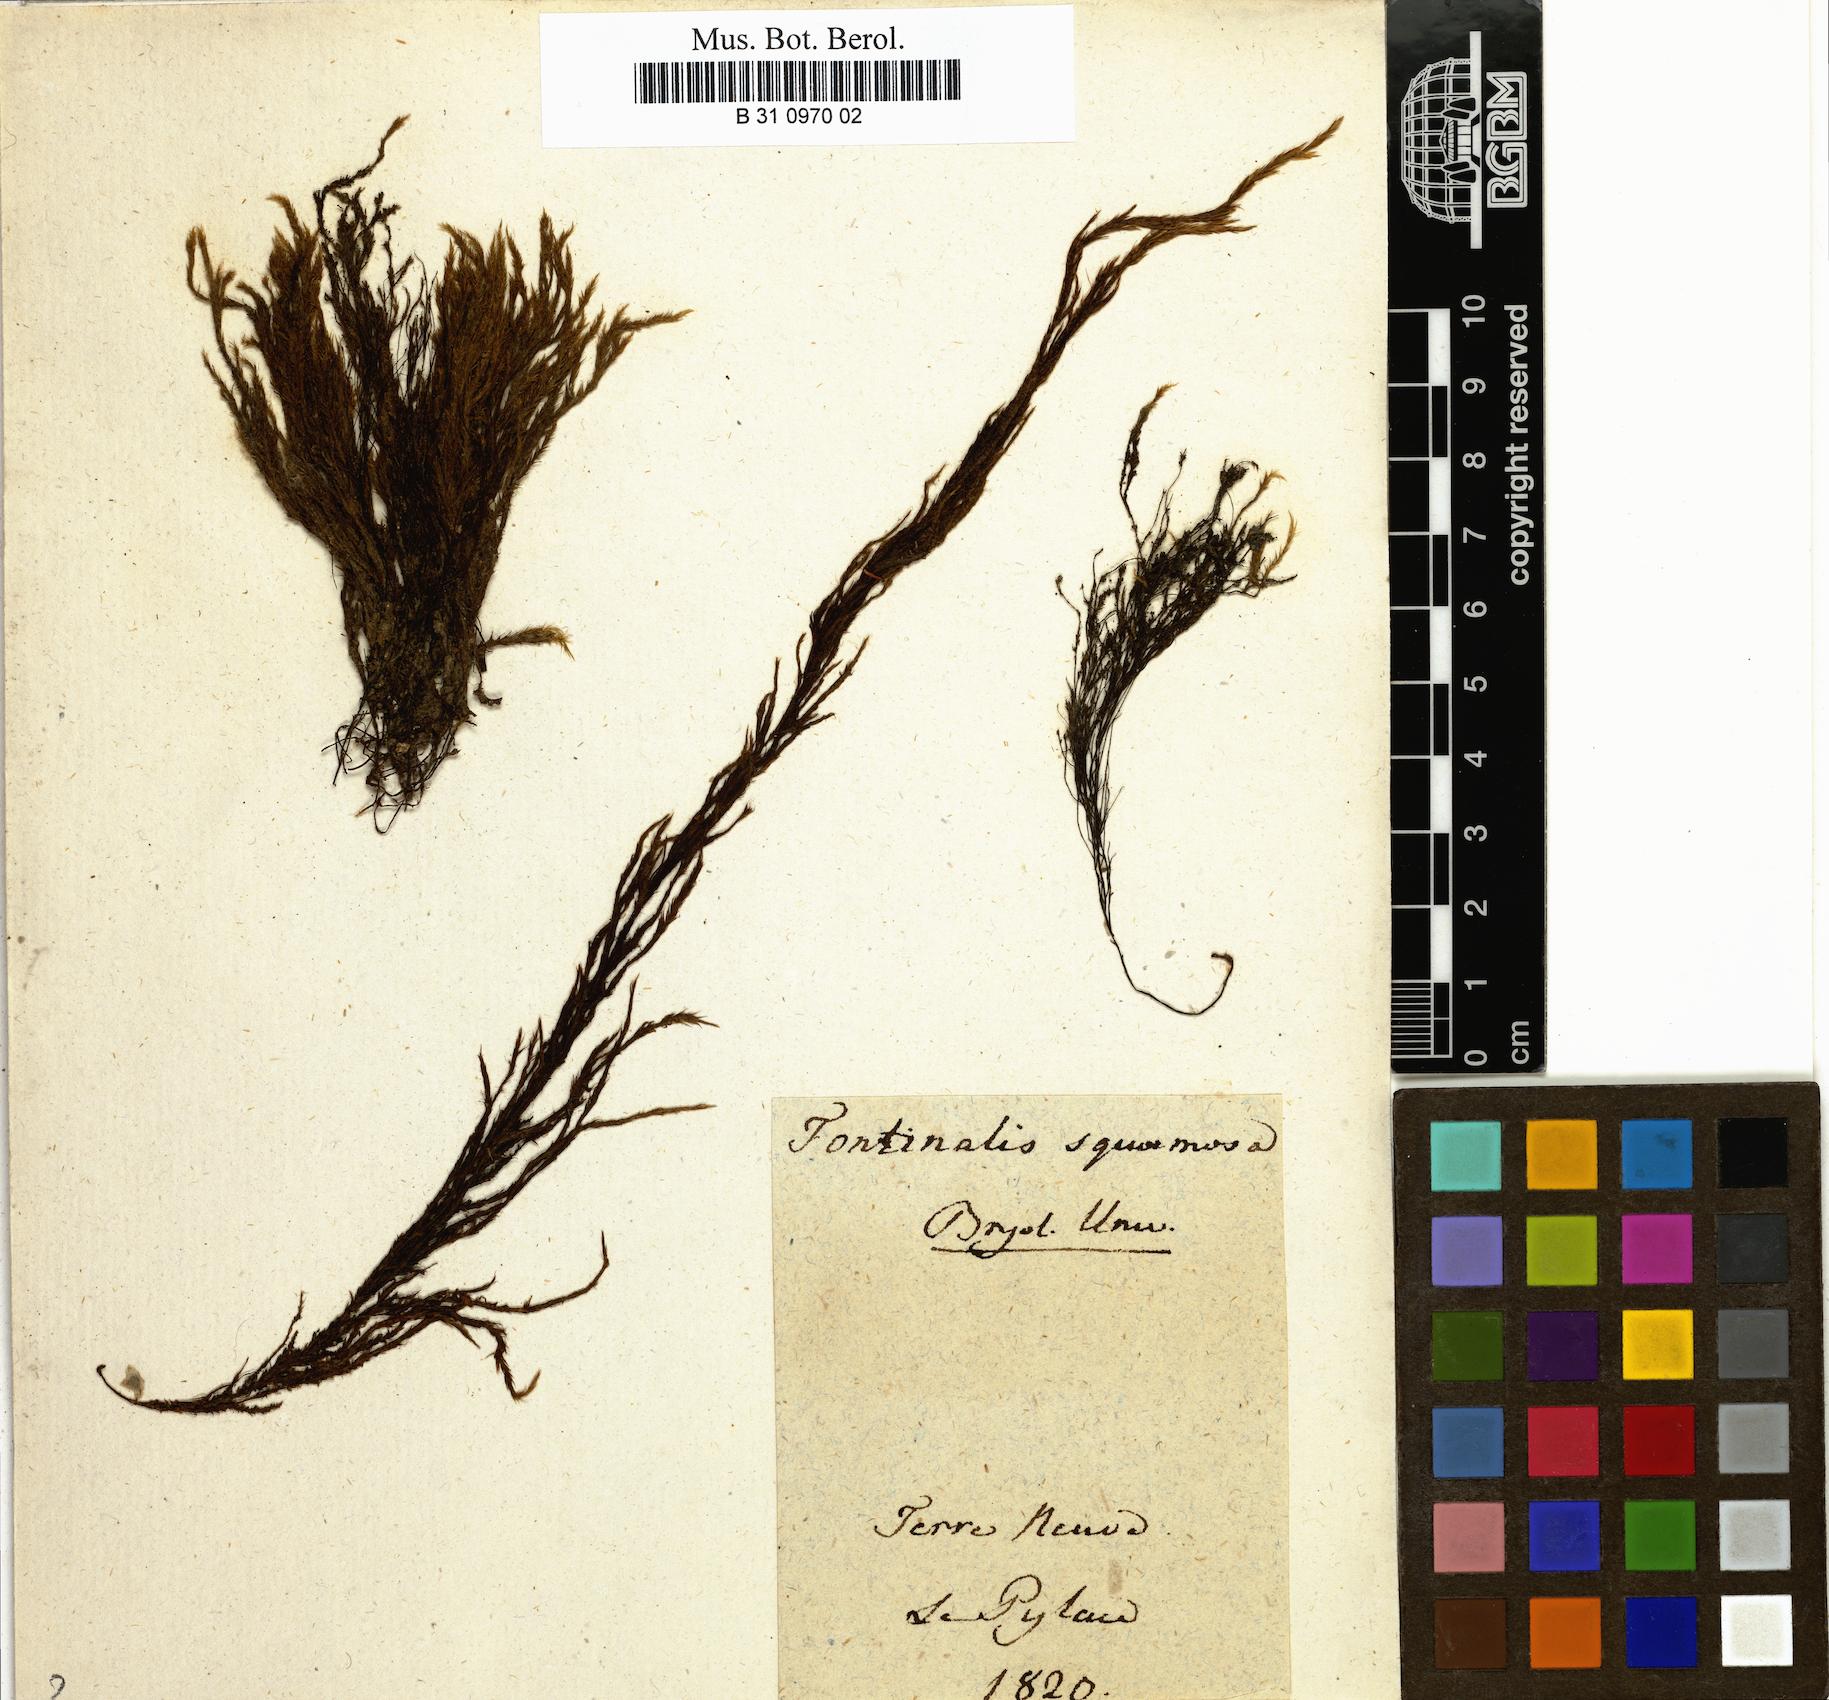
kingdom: Plantae
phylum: Bryophyta
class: Bryopsida
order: Hypnales
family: Fontinalaceae
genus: Fontinalis
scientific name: Fontinalis squamosa
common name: Alpine water-moss
